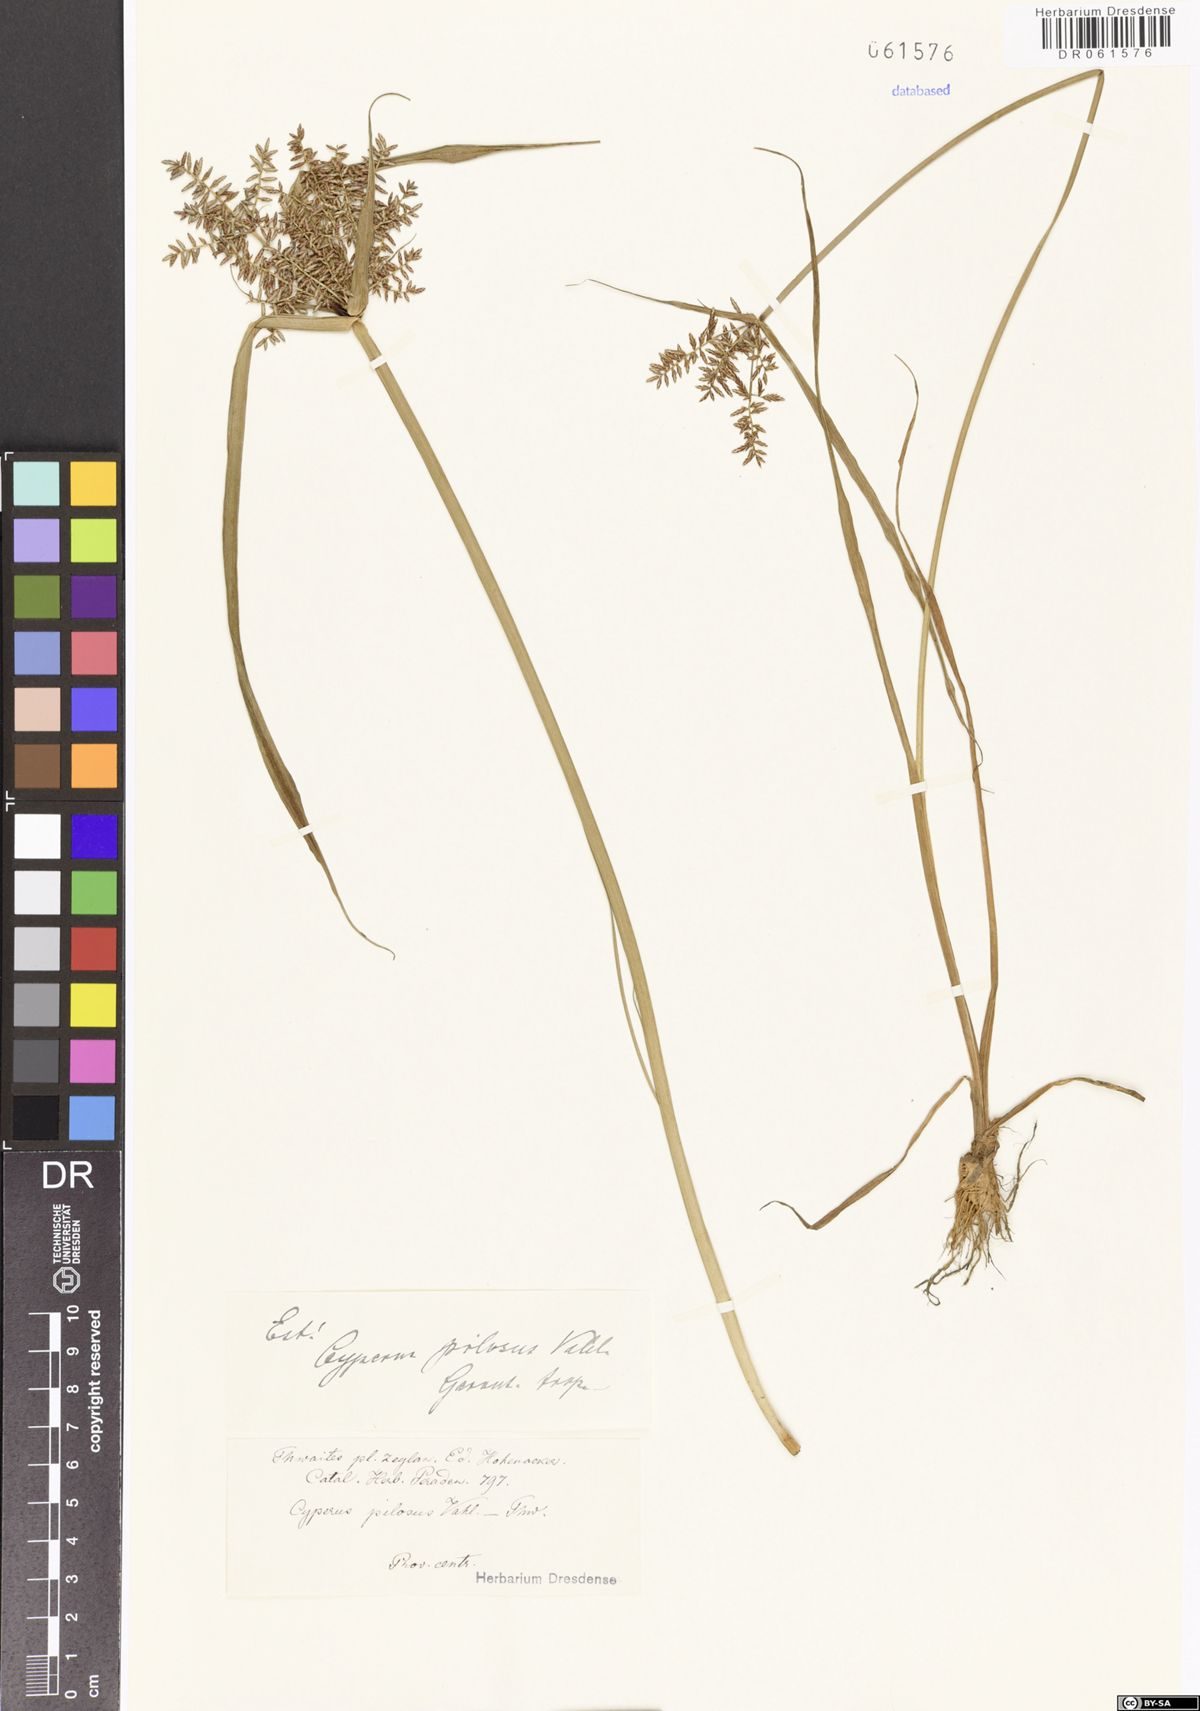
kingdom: Plantae
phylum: Tracheophyta
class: Liliopsida
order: Poales
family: Cyperaceae
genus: Cyperus
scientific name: Cyperus pilosus
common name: Fuzzy flatsedge
